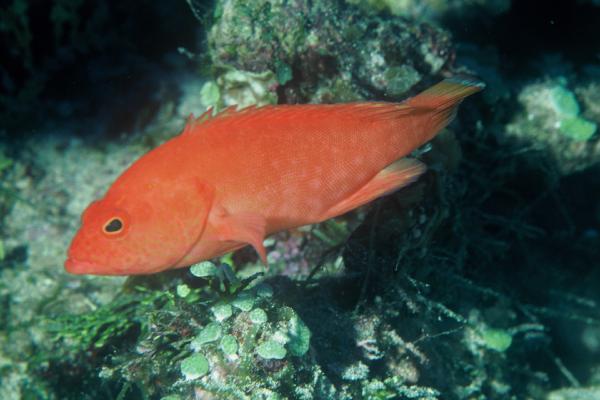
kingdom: Animalia
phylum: Chordata
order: Perciformes
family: Serranidae
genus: Cephalopholis
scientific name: Cephalopholis spiloparaea
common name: Strawberry grouper
